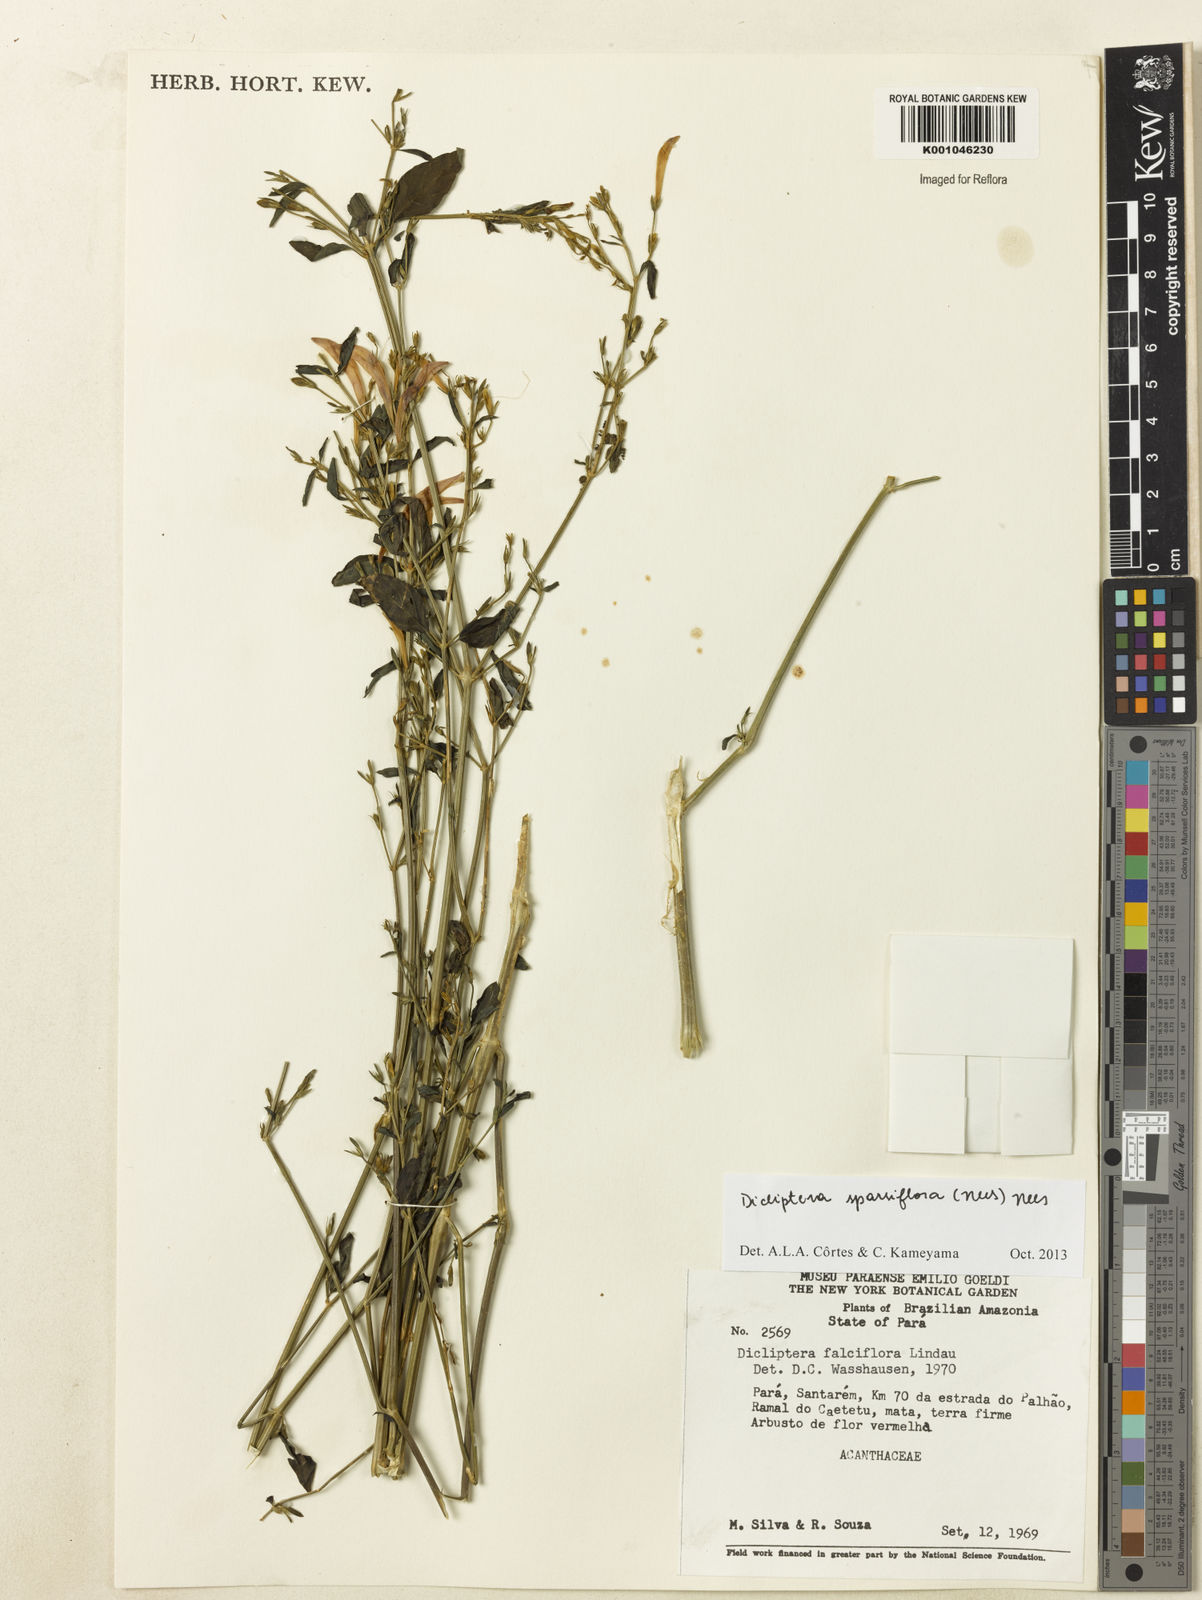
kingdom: Plantae
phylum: Tracheophyta
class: Magnoliopsida
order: Lamiales
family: Acanthaceae
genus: Dicliptera
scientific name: Dicliptera sparsiflora
